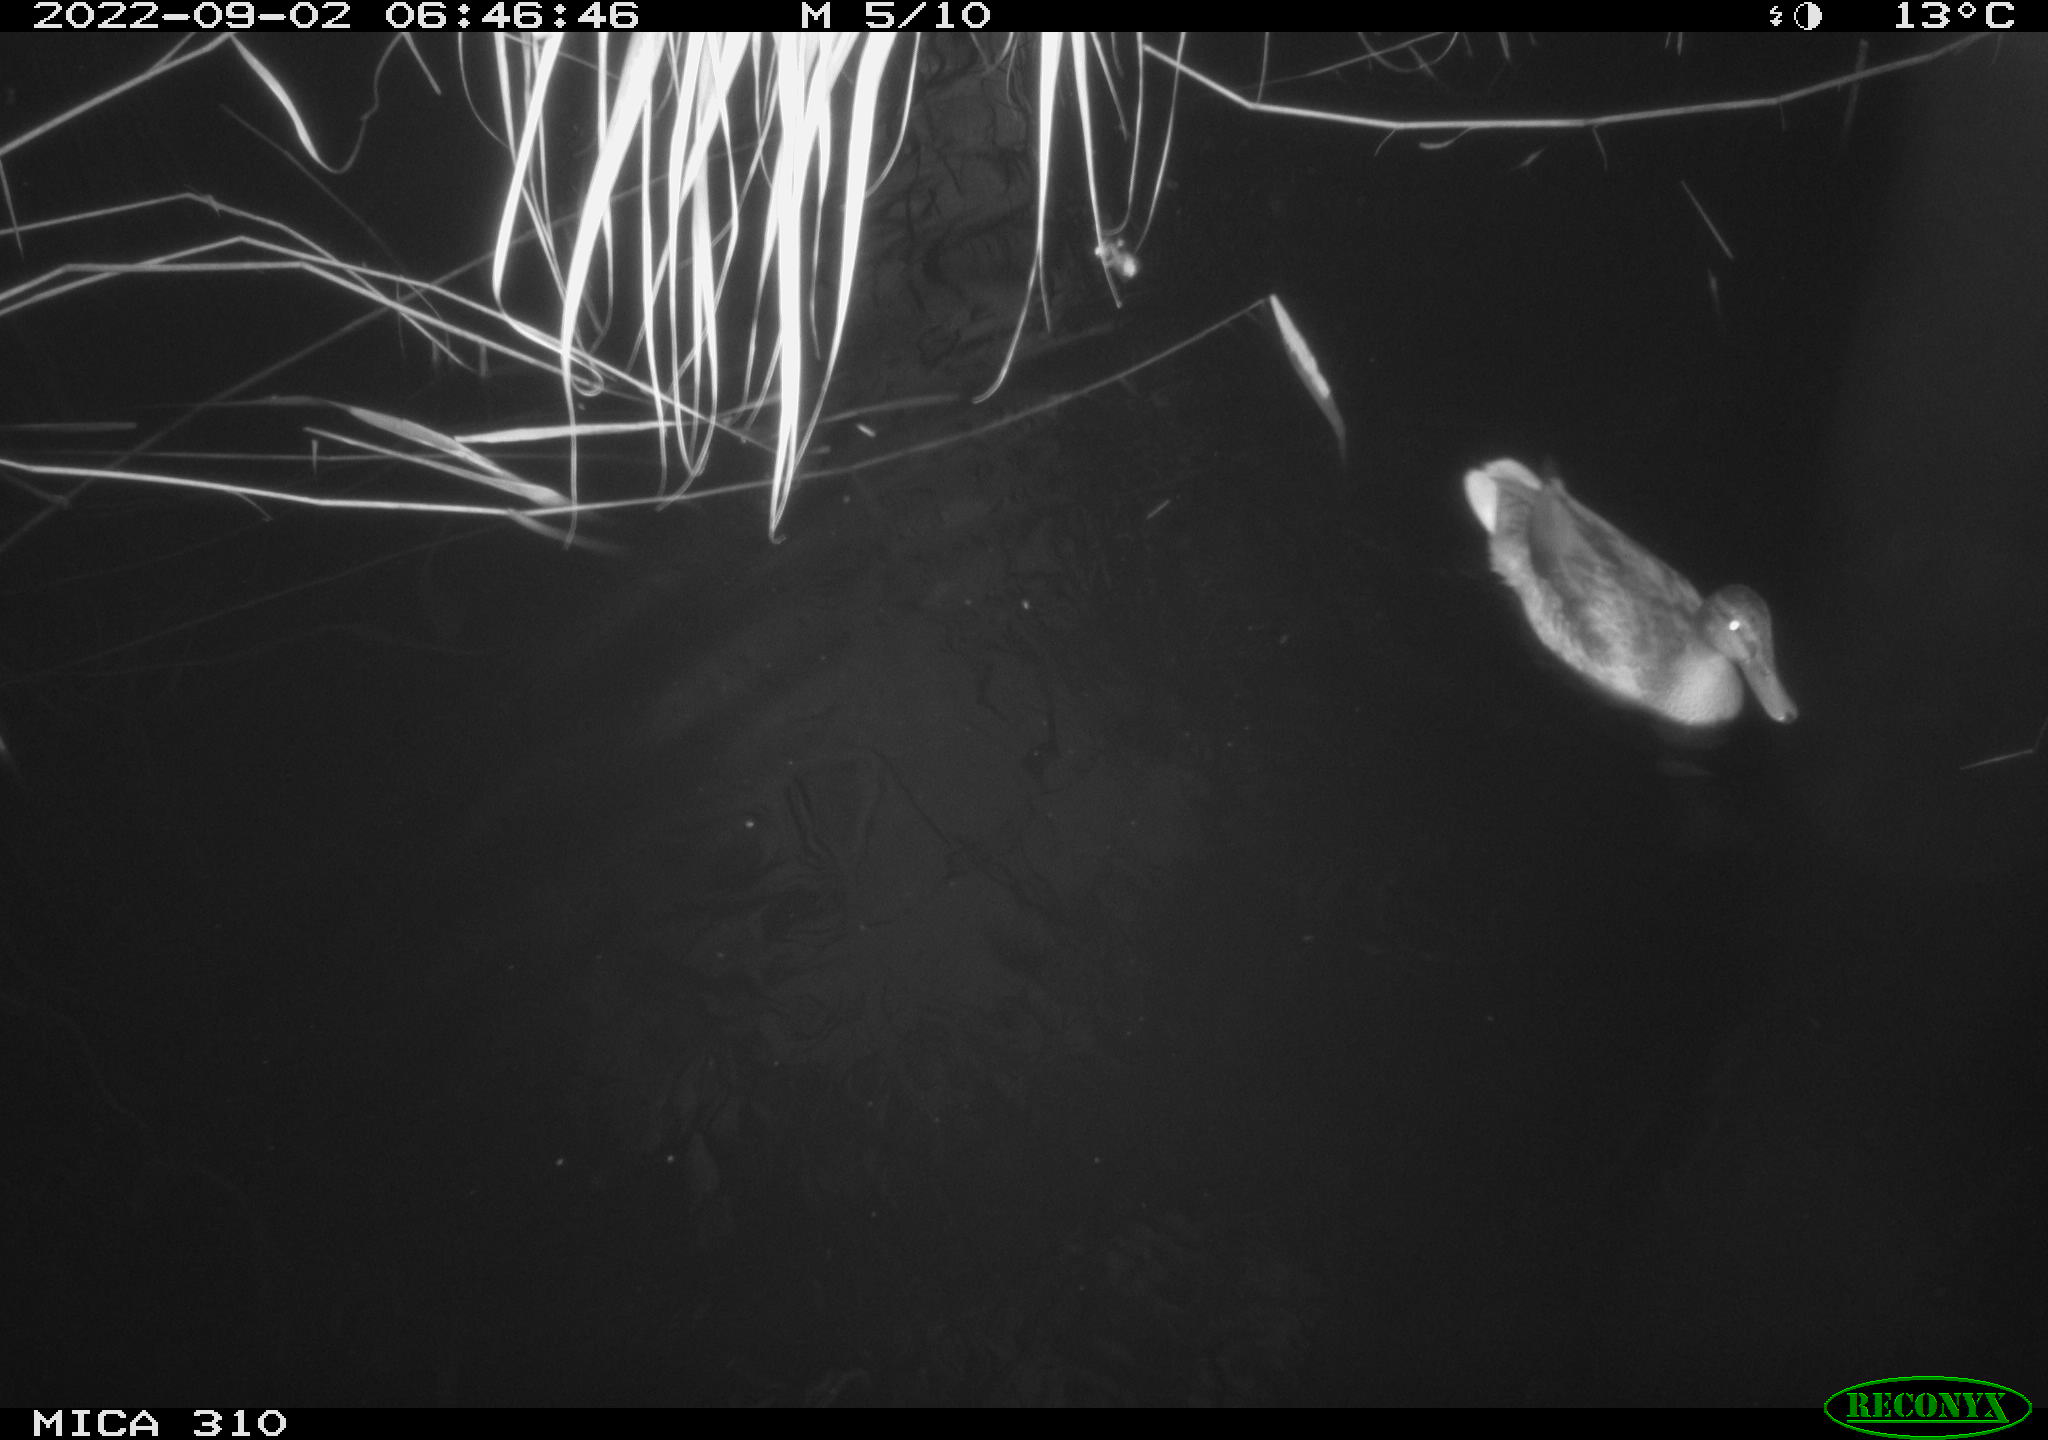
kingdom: Animalia
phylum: Chordata
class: Aves
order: Anseriformes
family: Anatidae
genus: Mareca
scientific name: Mareca strepera
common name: Gadwall
